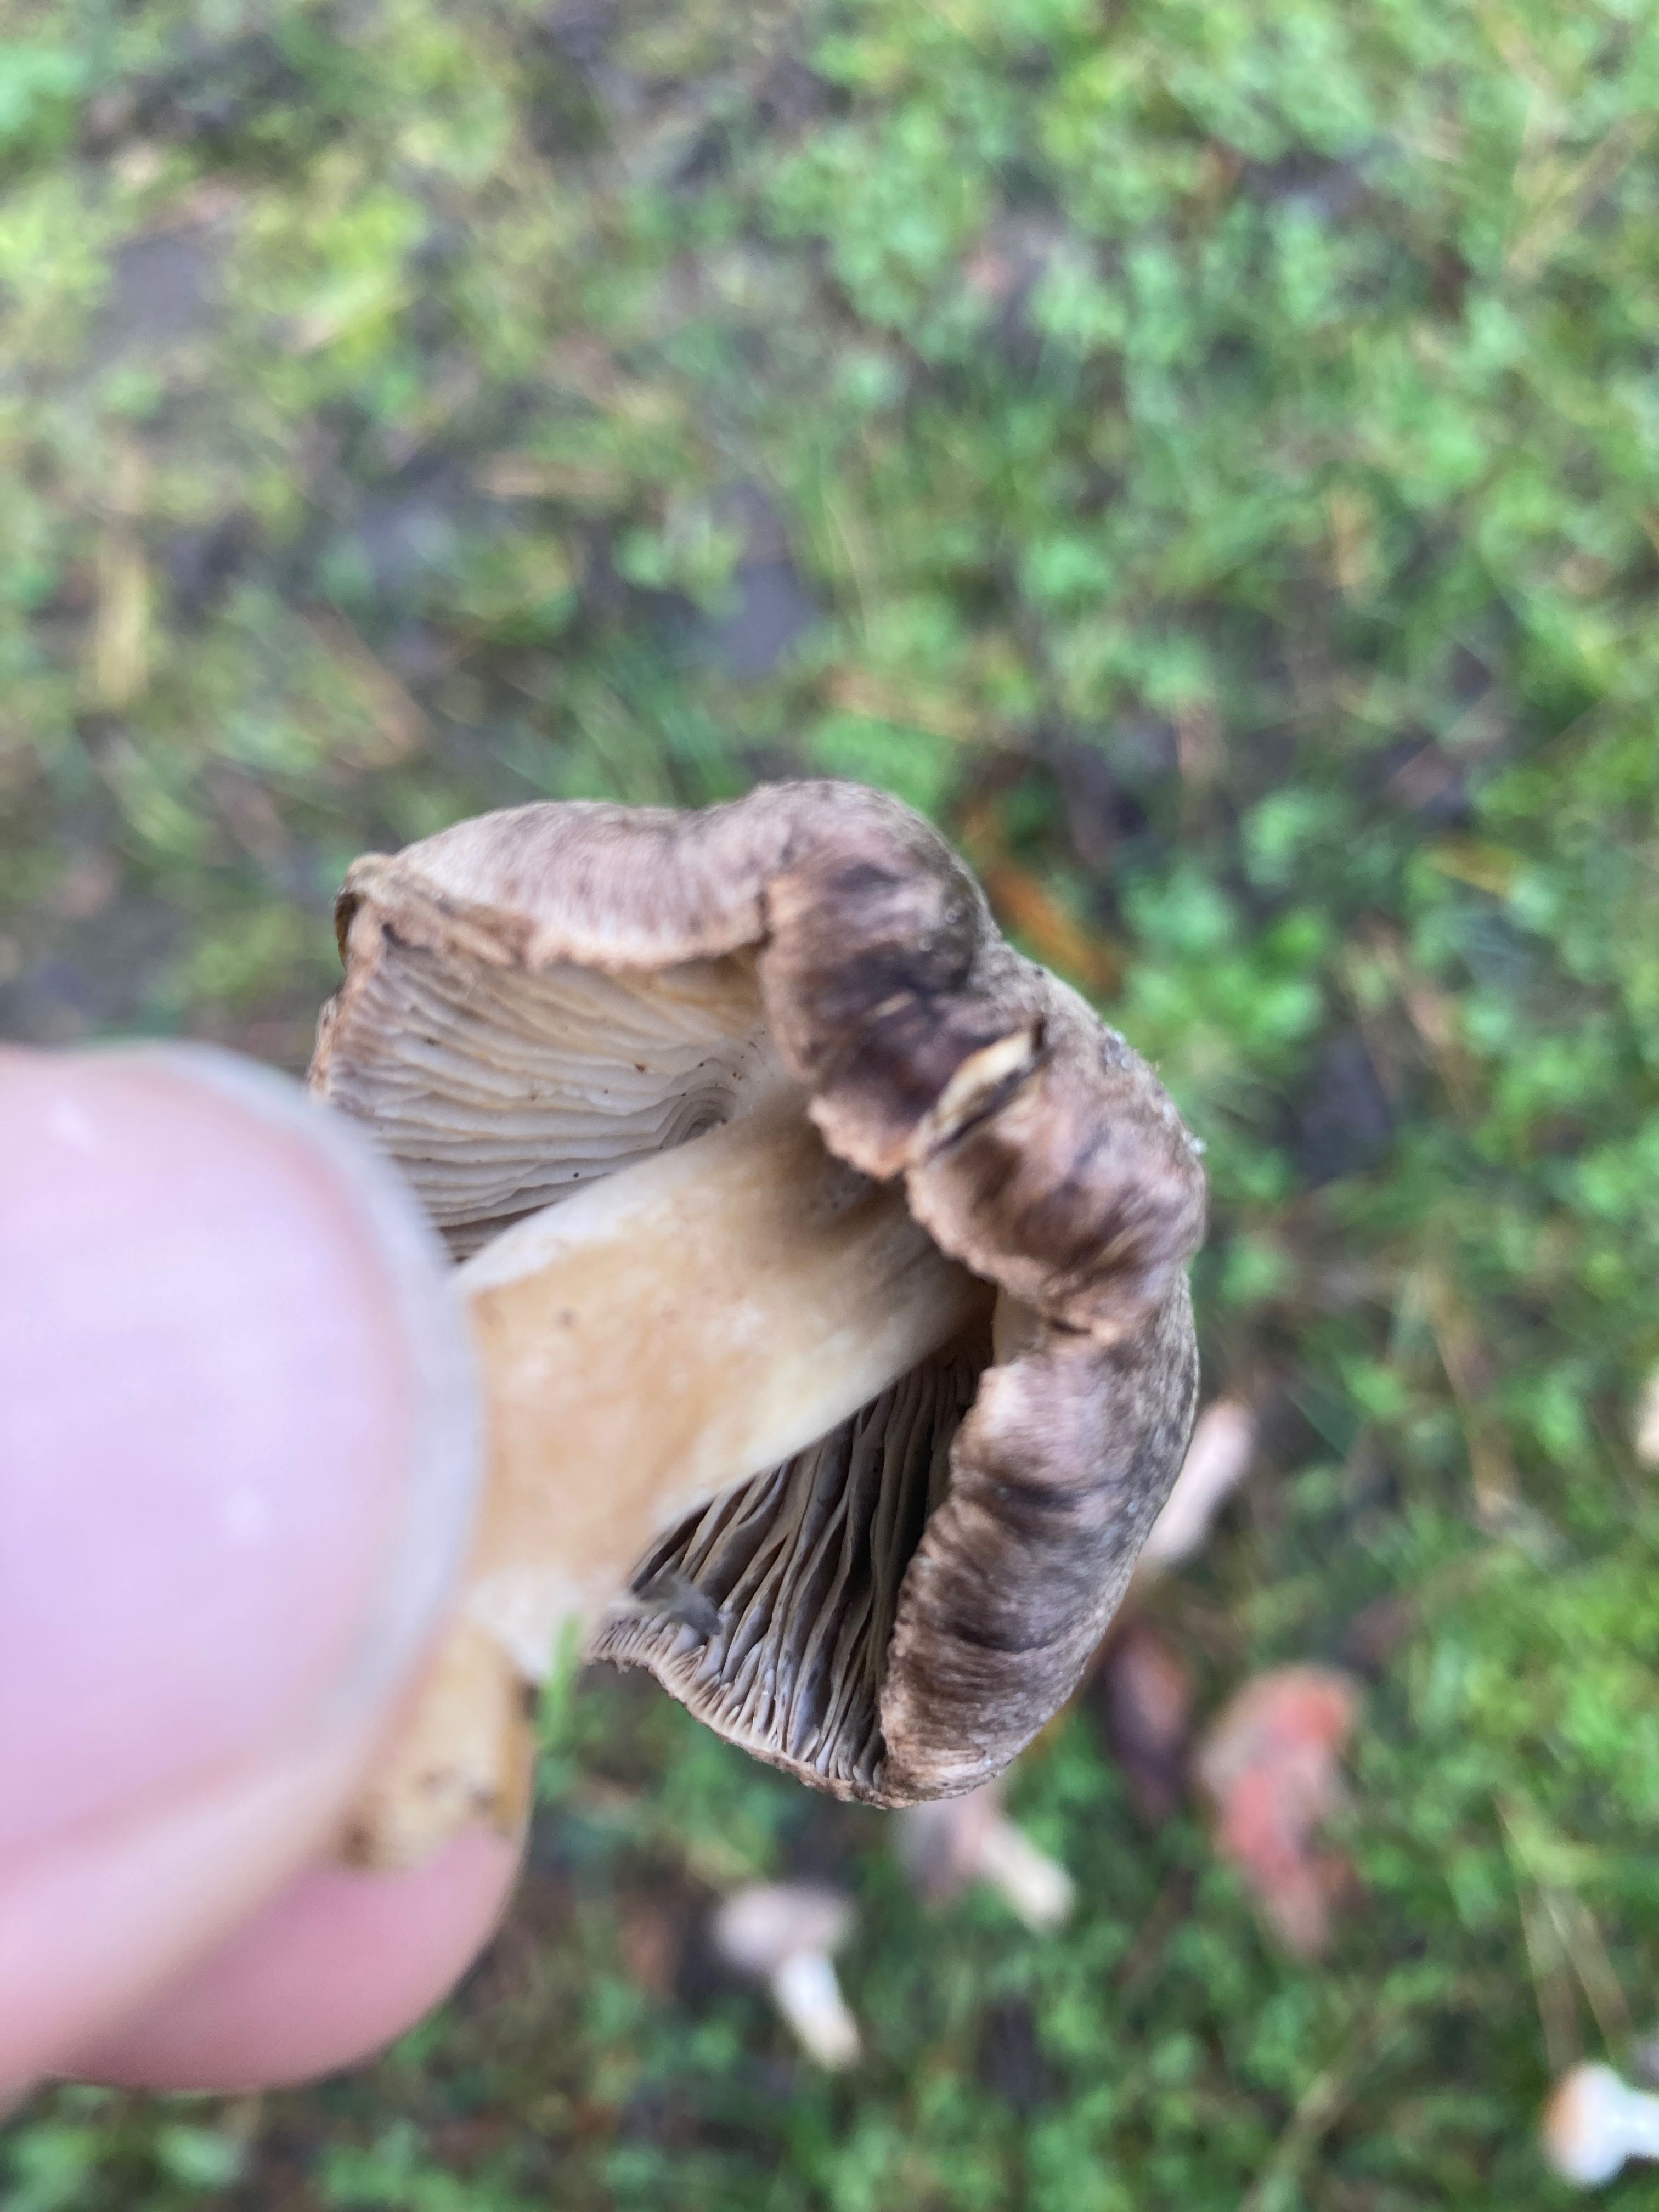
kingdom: Fungi
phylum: Basidiomycota
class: Agaricomycetes
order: Agaricales
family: Tricholomataceae
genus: Tricholoma
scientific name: Tricholoma terreum
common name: jordfarvet ridderhat
